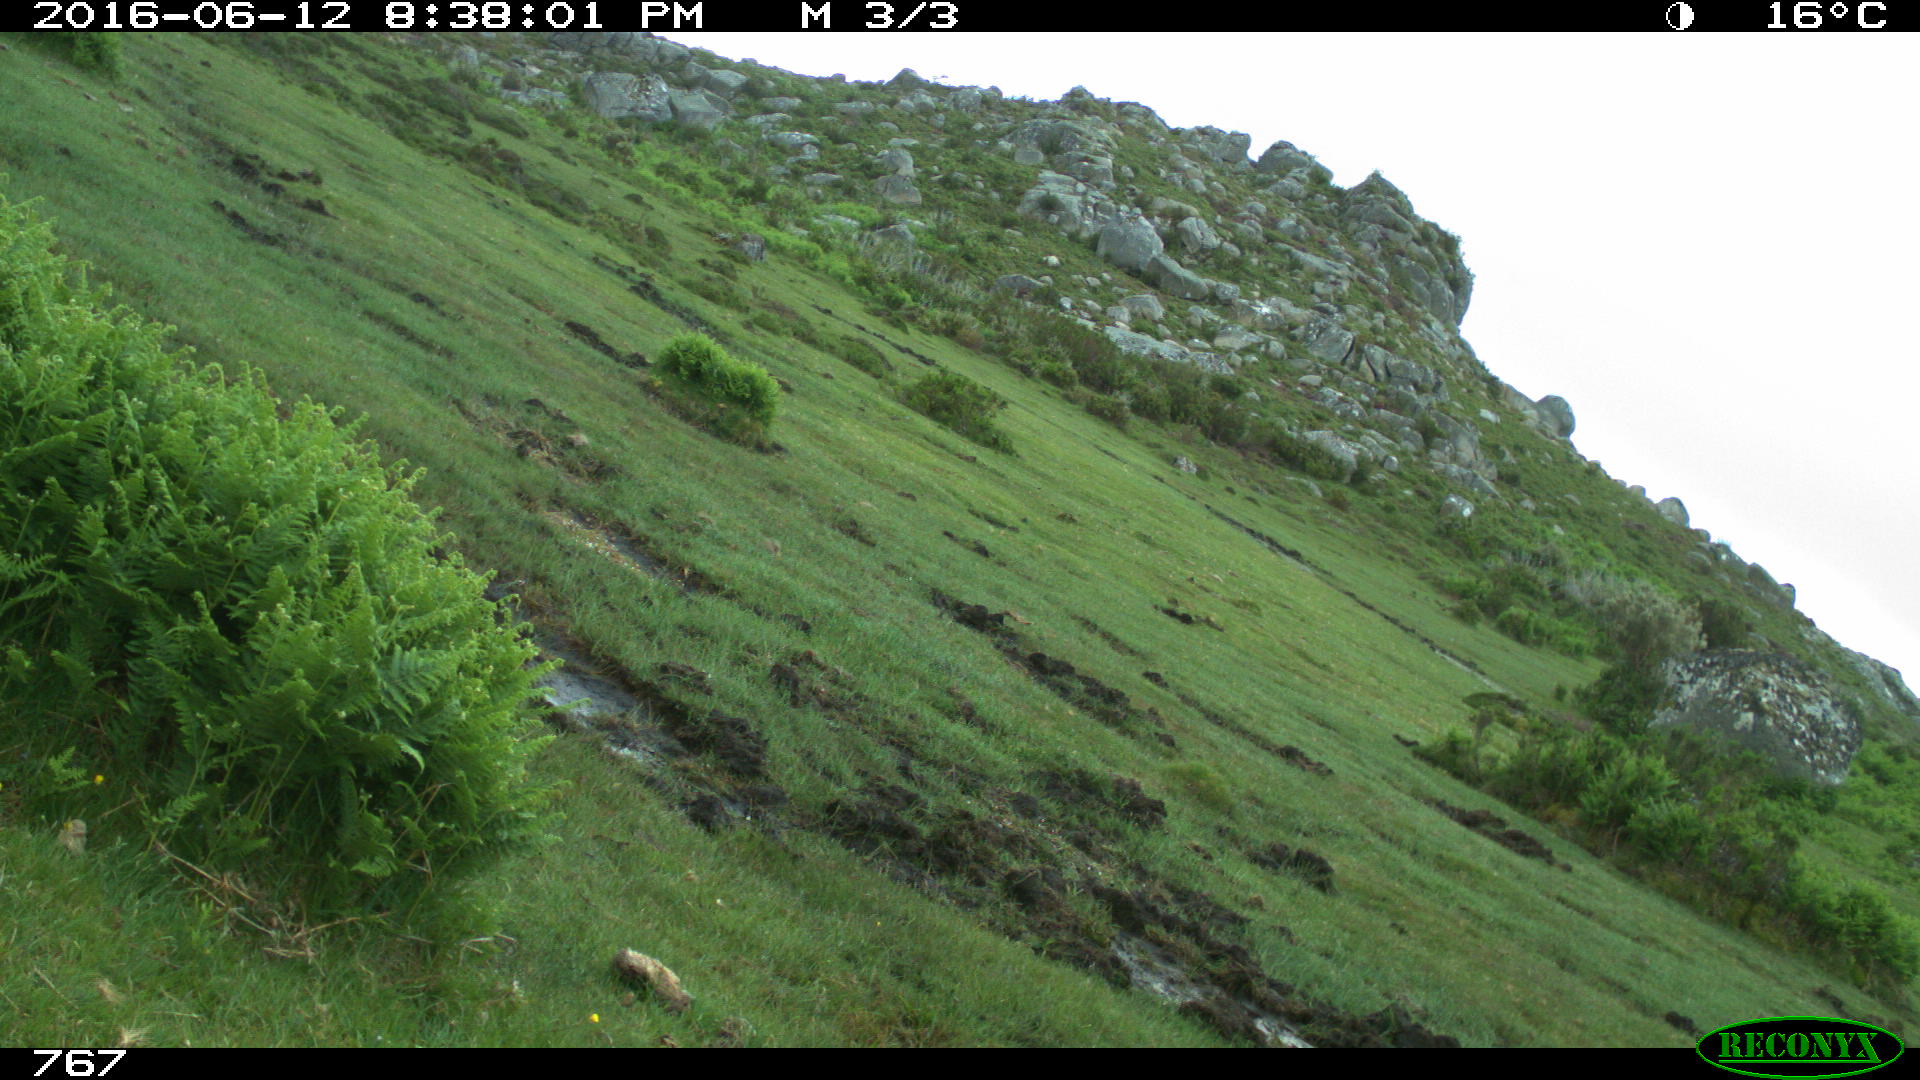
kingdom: Animalia
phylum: Chordata
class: Mammalia
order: Artiodactyla
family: Bovidae
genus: Bos
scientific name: Bos taurus
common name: Domesticated cattle
